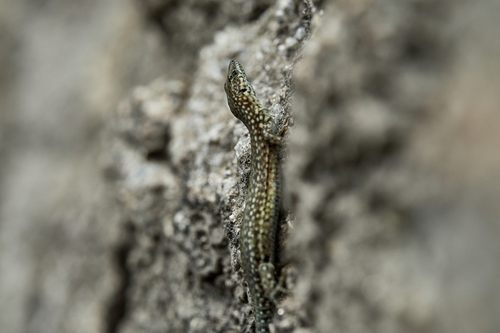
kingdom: Animalia
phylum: Chordata
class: Squamata
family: Lacertidae
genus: Podarcis
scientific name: Podarcis guadarramae
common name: Guadarrama wall lizard
